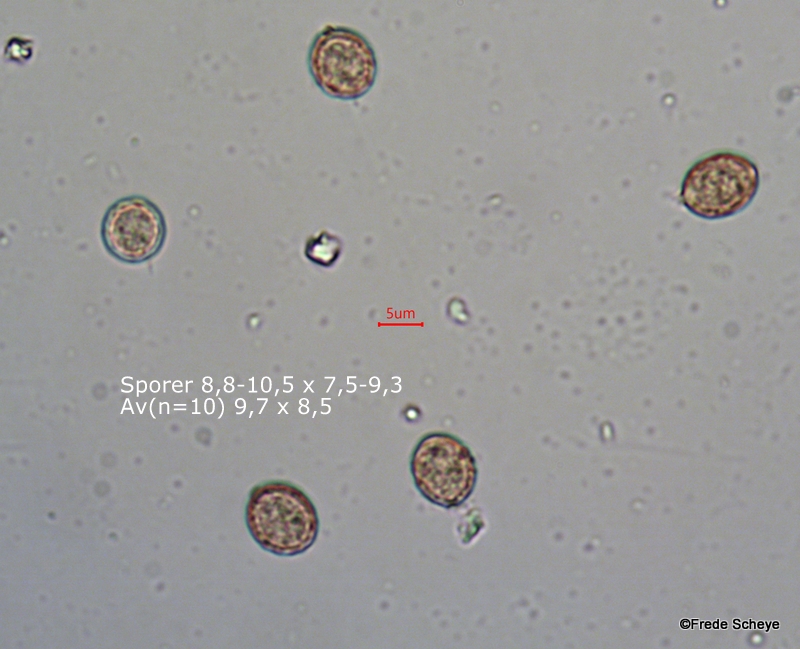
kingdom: Fungi
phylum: Basidiomycota
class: Agaricomycetes
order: Agaricales
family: Chromocyphellaceae
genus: Chromocyphella
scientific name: Chromocyphella muscicola
